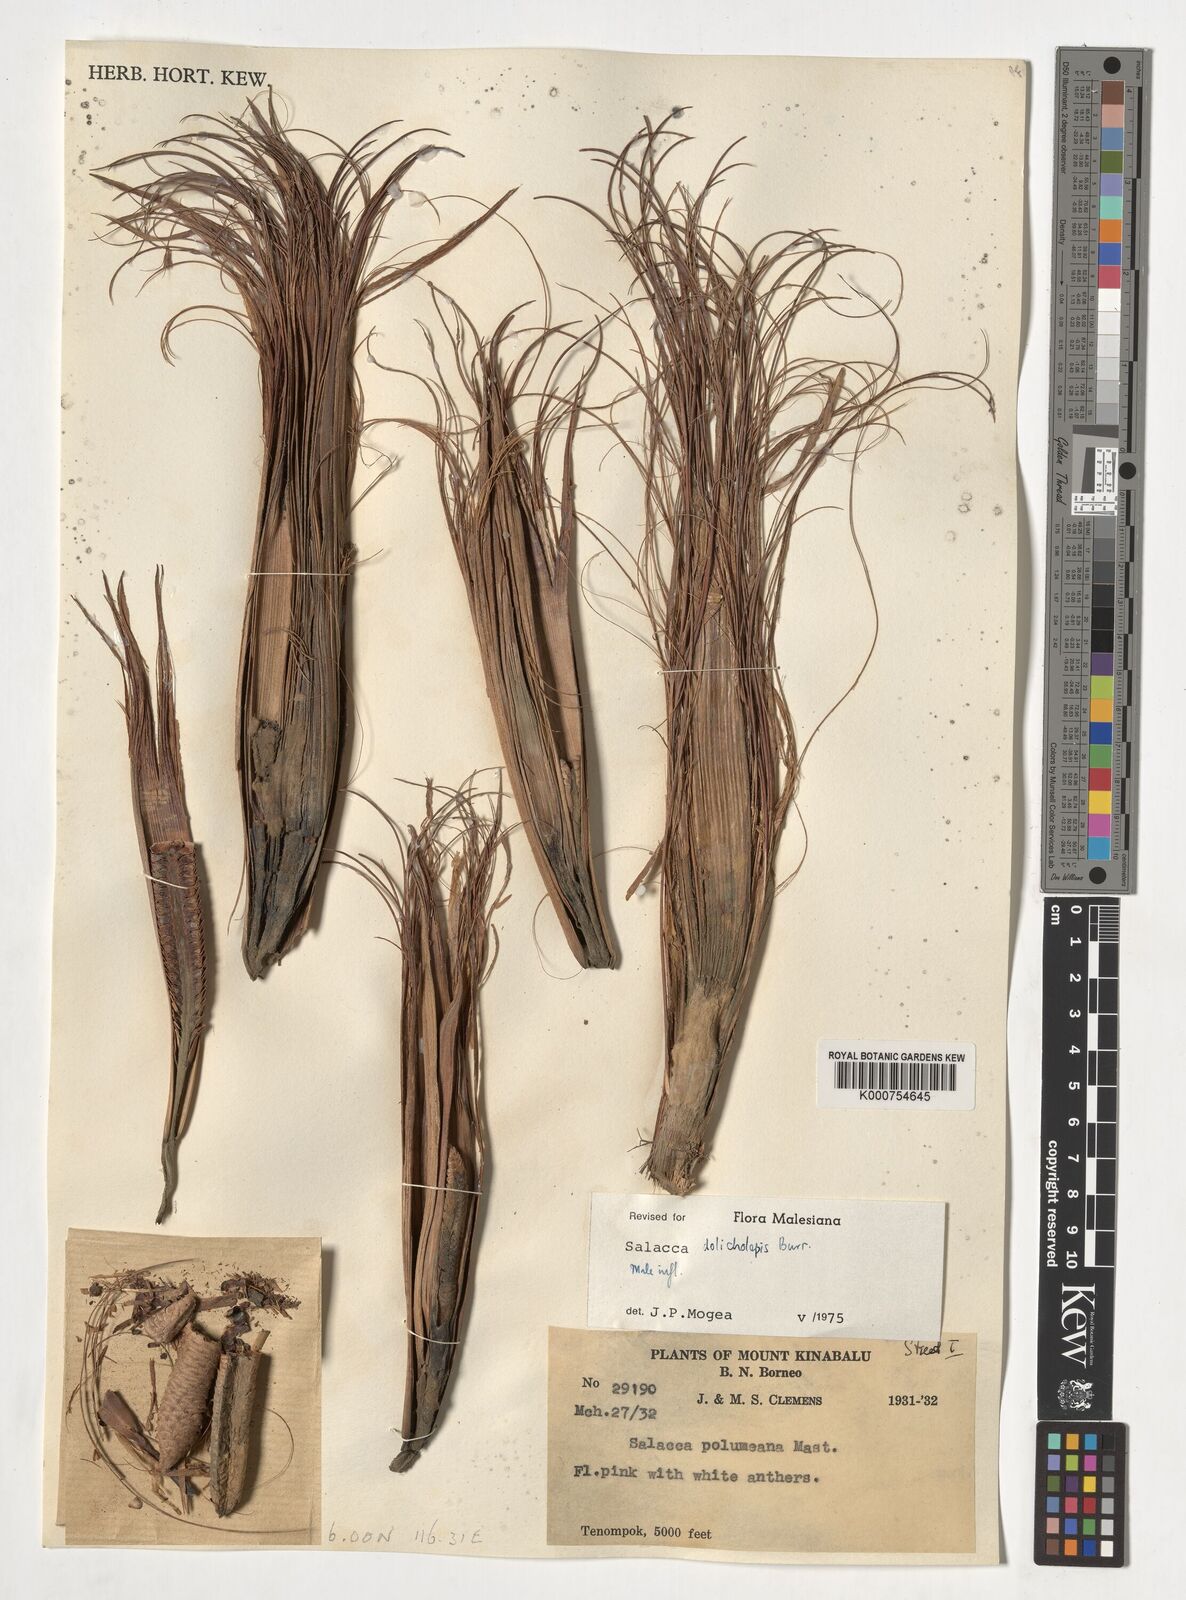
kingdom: Plantae
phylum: Tracheophyta
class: Liliopsida
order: Arecales
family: Arecaceae
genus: Salacca
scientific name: Salacca dolicholepis
